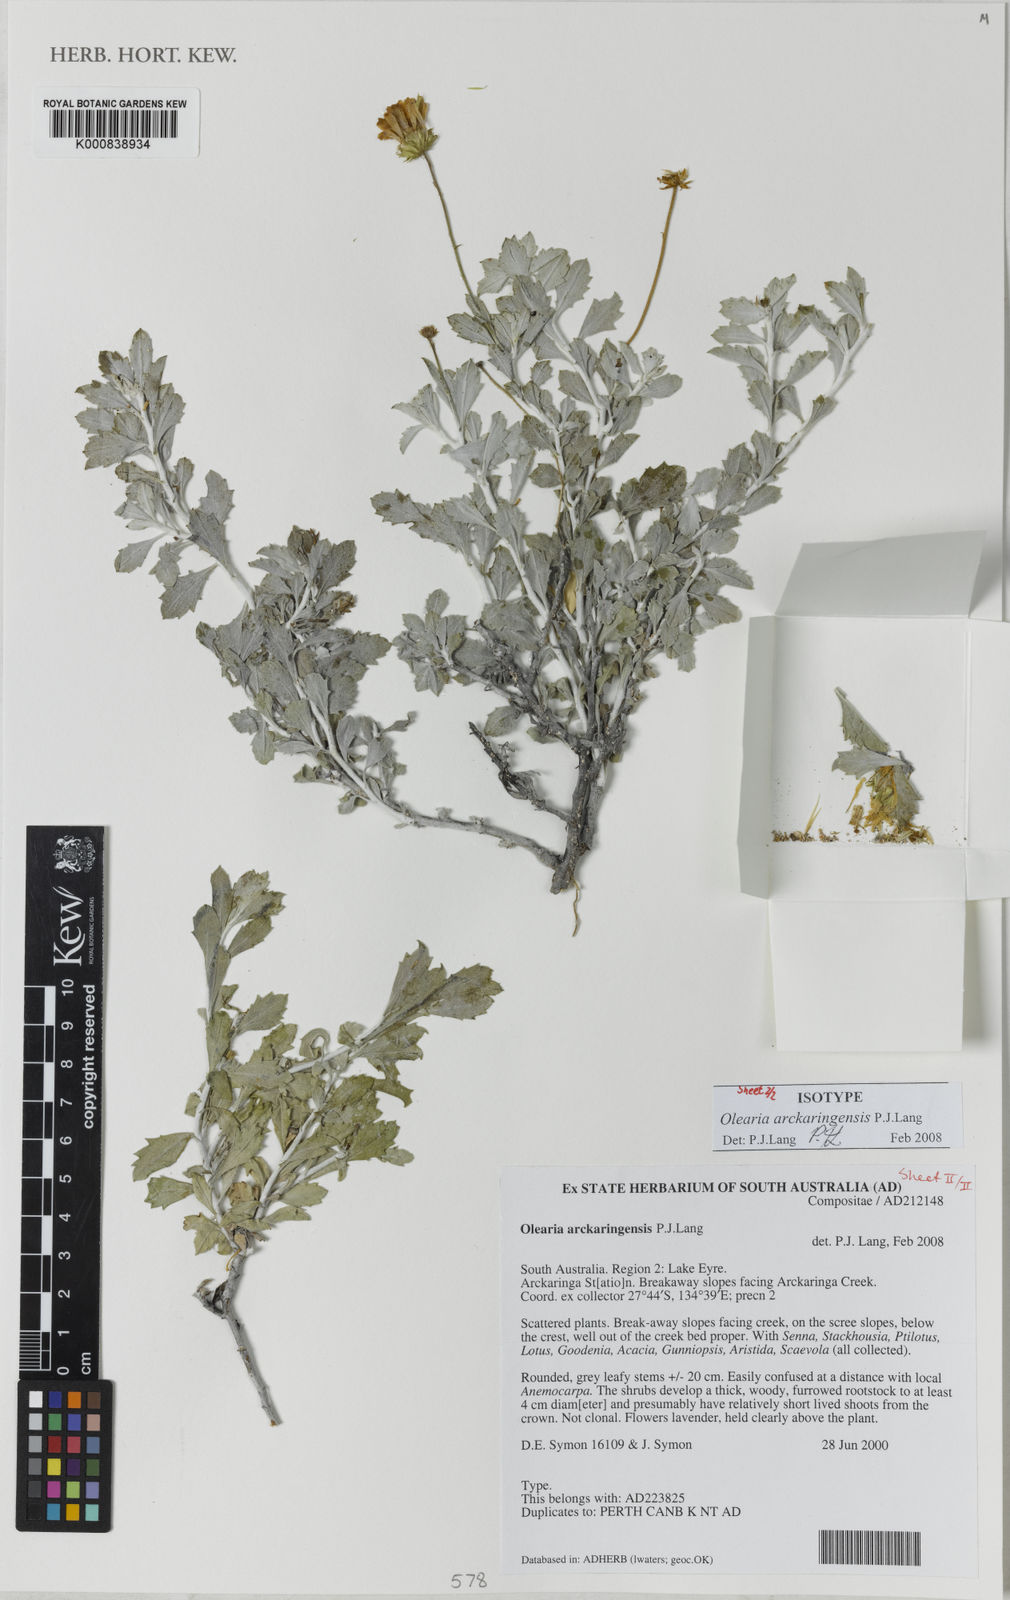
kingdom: Plantae
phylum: Tracheophyta
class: Magnoliopsida
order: Asterales
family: Asteraceae
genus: Landerolaria
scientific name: Landerolaria arckaringensis
